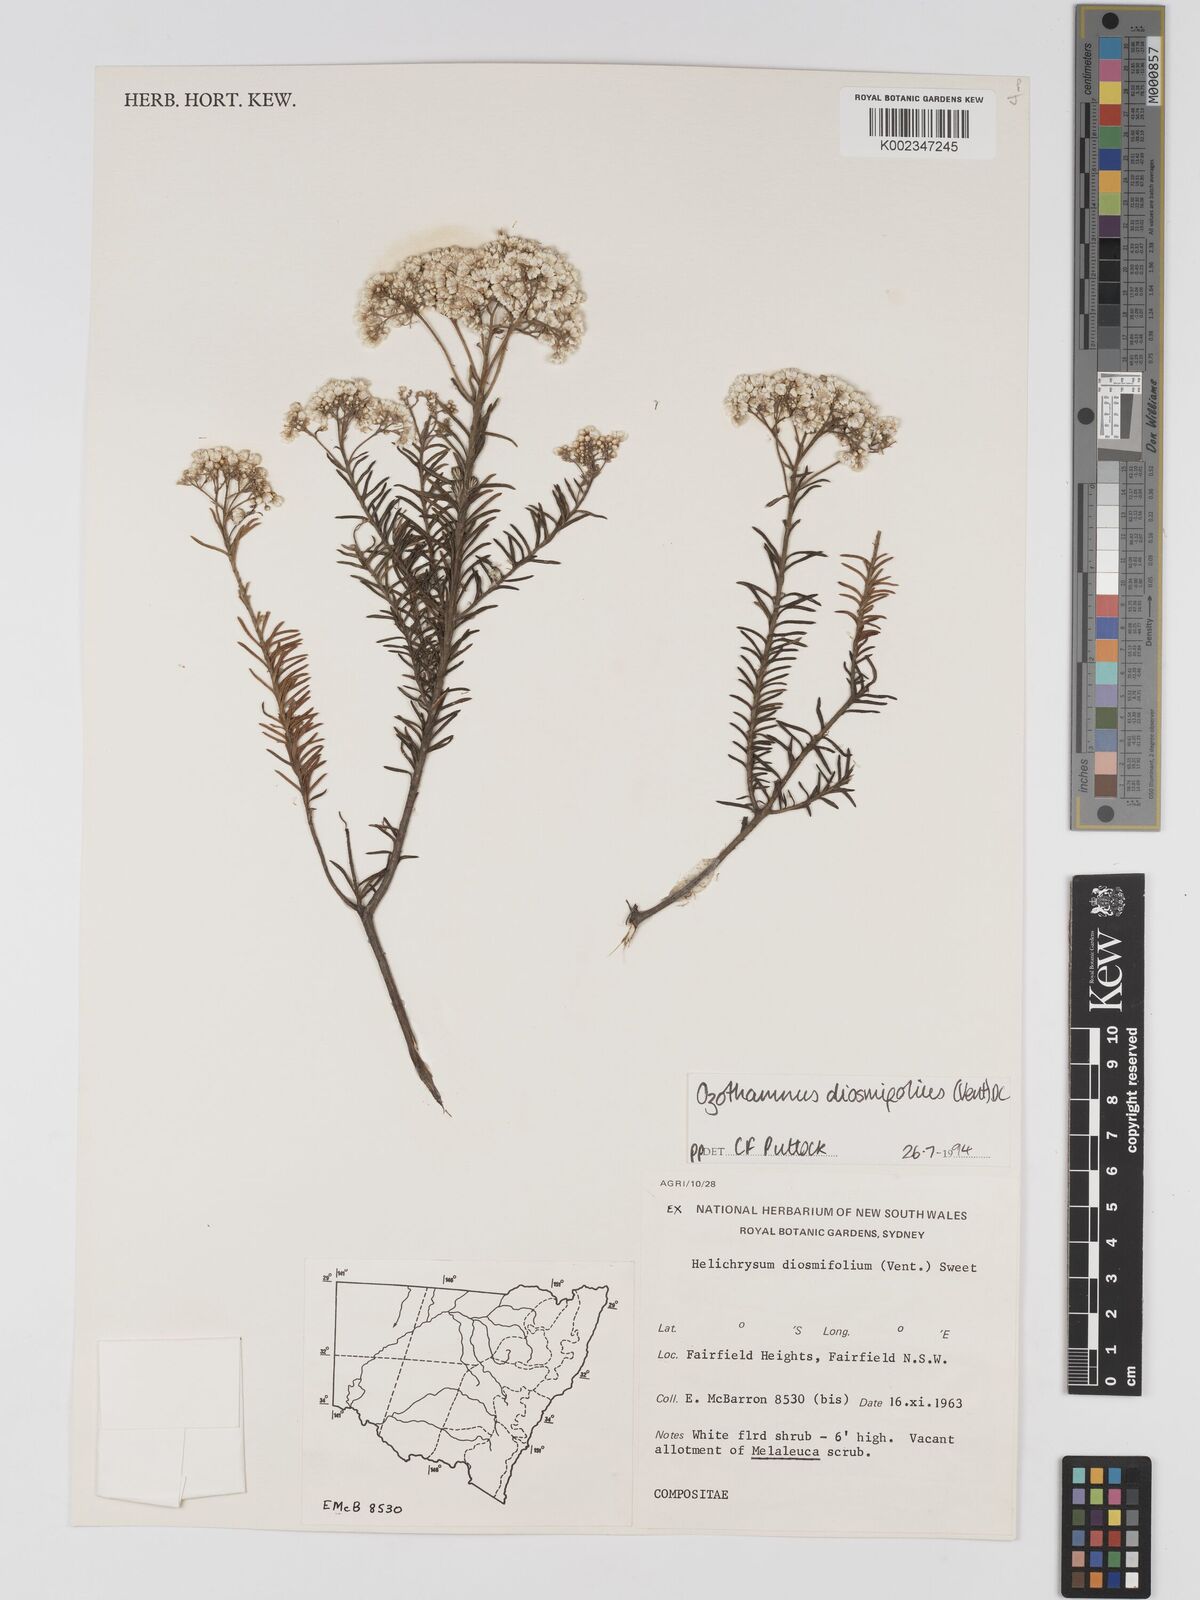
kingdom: Plantae
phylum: Tracheophyta
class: Magnoliopsida
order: Asterales
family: Asteraceae
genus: Ozothamnus
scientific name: Ozothamnus diosmifolius
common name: White-dogwood
